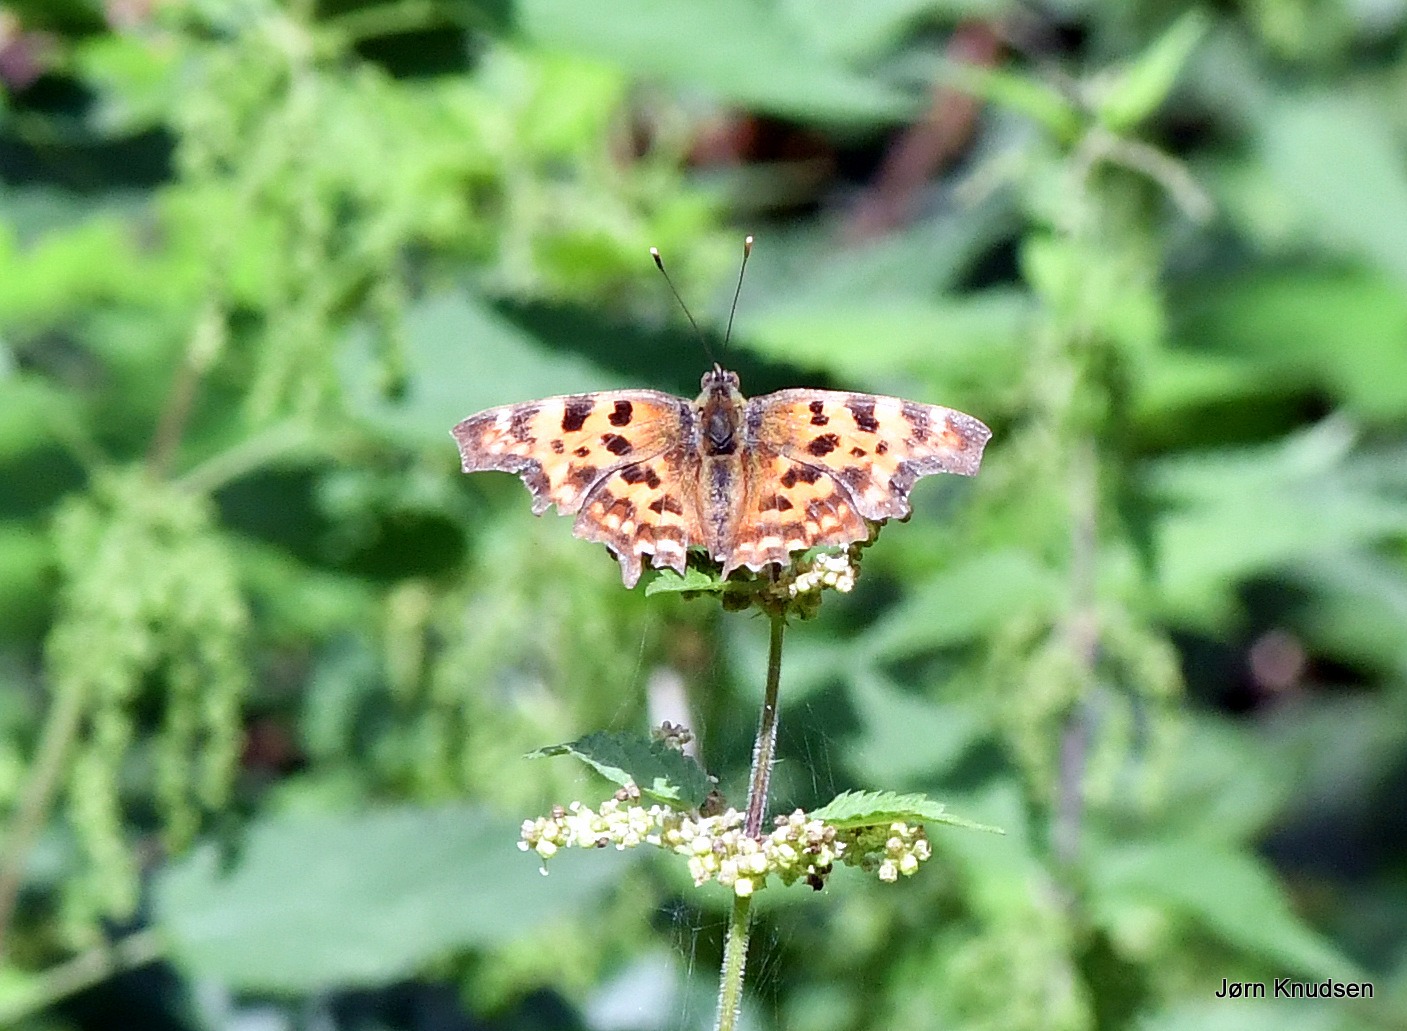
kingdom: Animalia
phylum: Arthropoda
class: Insecta
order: Lepidoptera
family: Nymphalidae
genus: Polygonia
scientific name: Polygonia c-album
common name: Det hvide C
